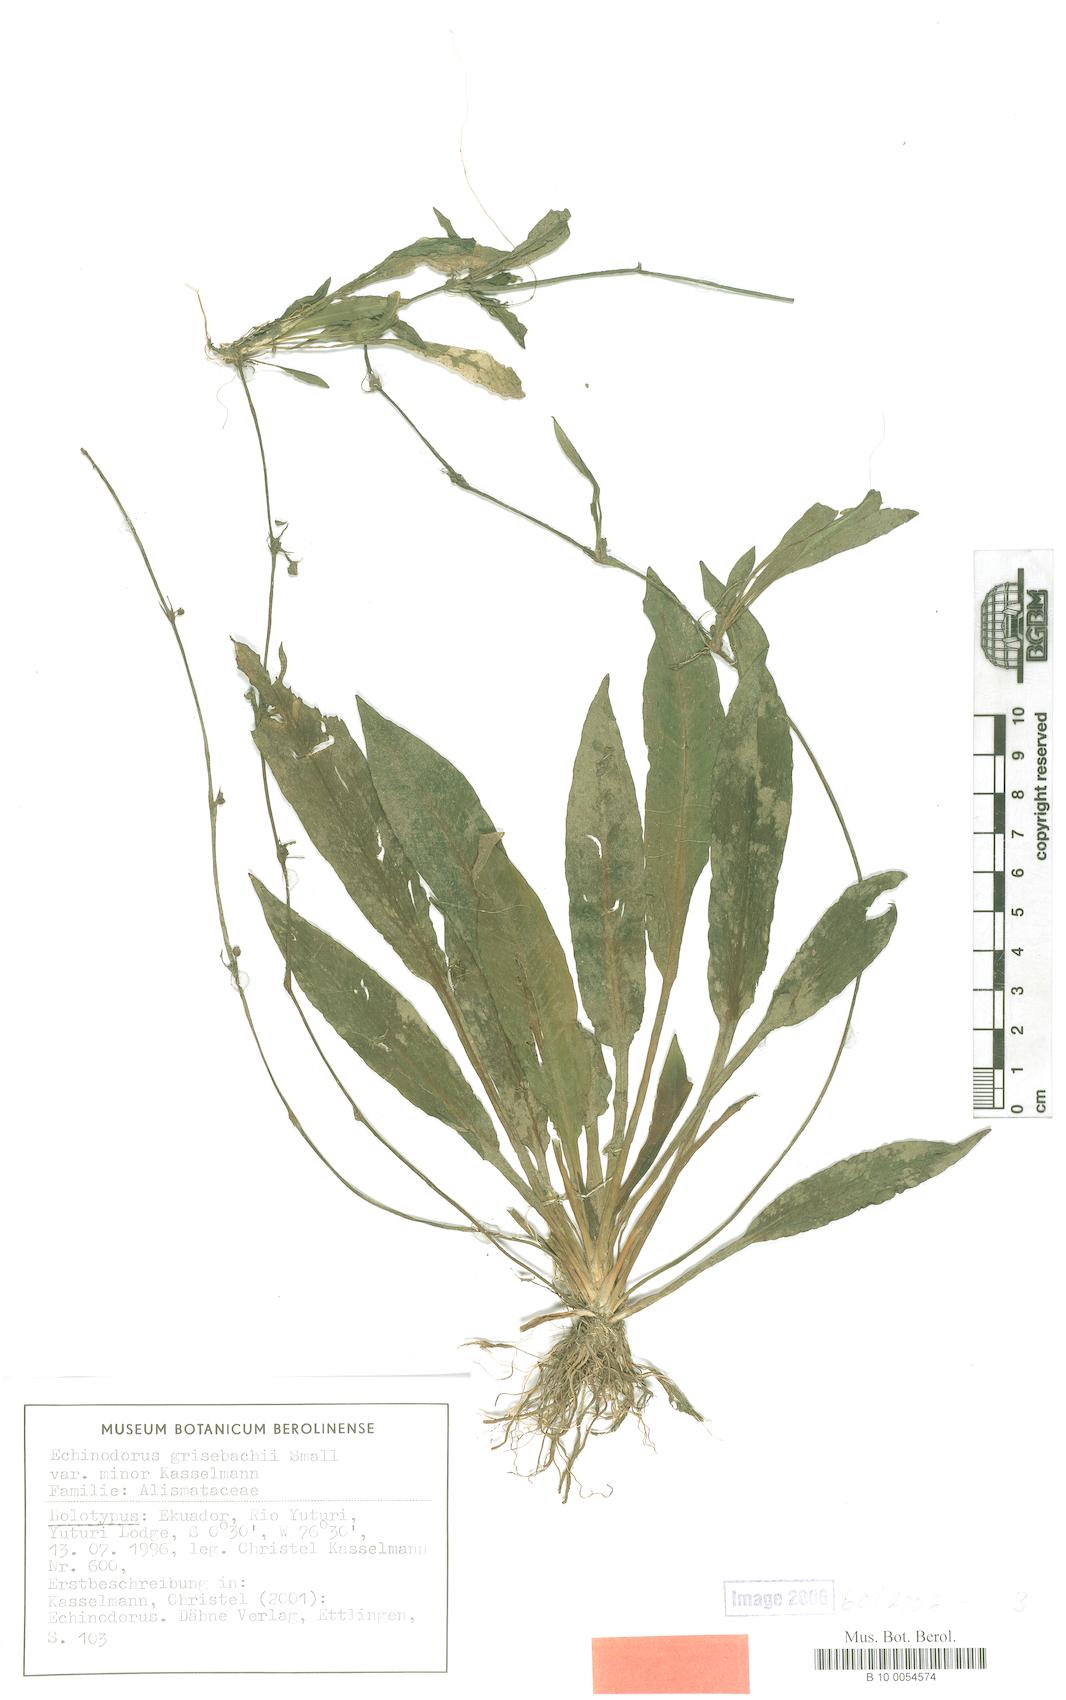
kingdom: Plantae
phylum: Tracheophyta
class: Liliopsida
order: Alismatales
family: Alismataceae
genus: Aquarius
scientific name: Aquarius grisebachii
